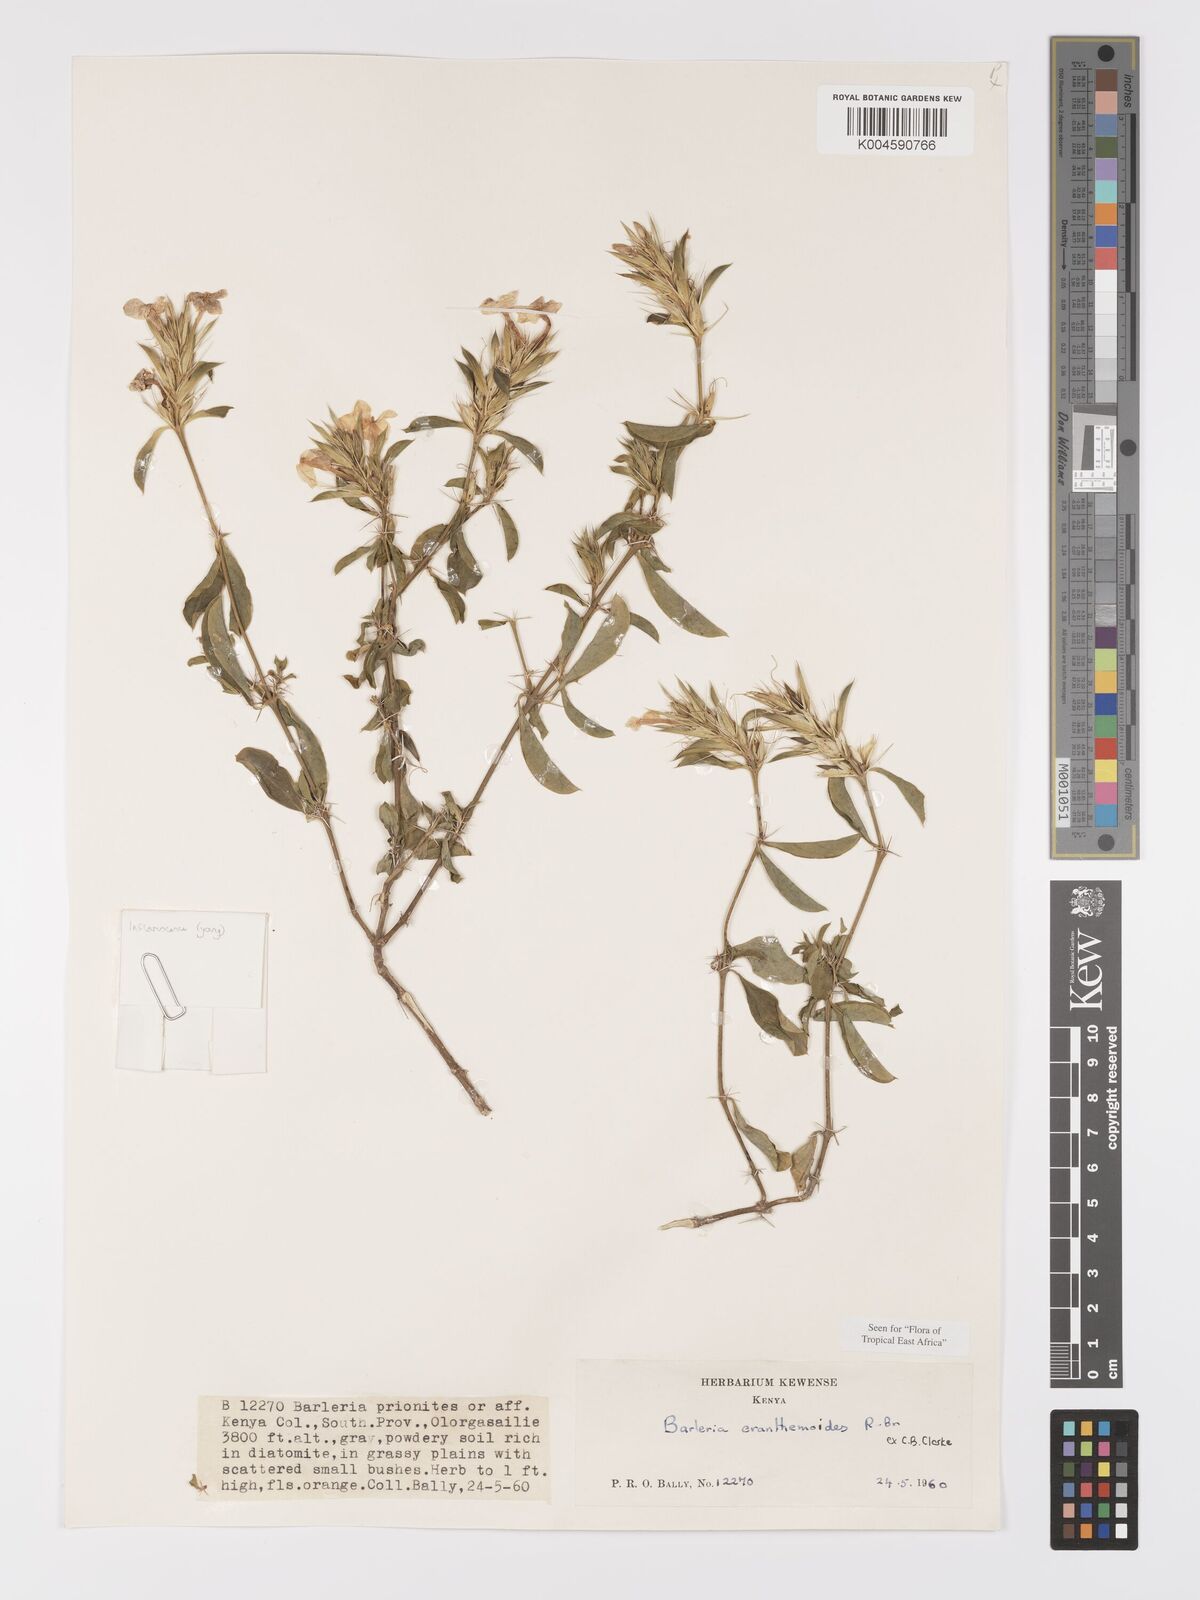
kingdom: Plantae
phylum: Tracheophyta
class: Magnoliopsida
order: Lamiales
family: Acanthaceae
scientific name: Acanthaceae
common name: Acanthaceae
